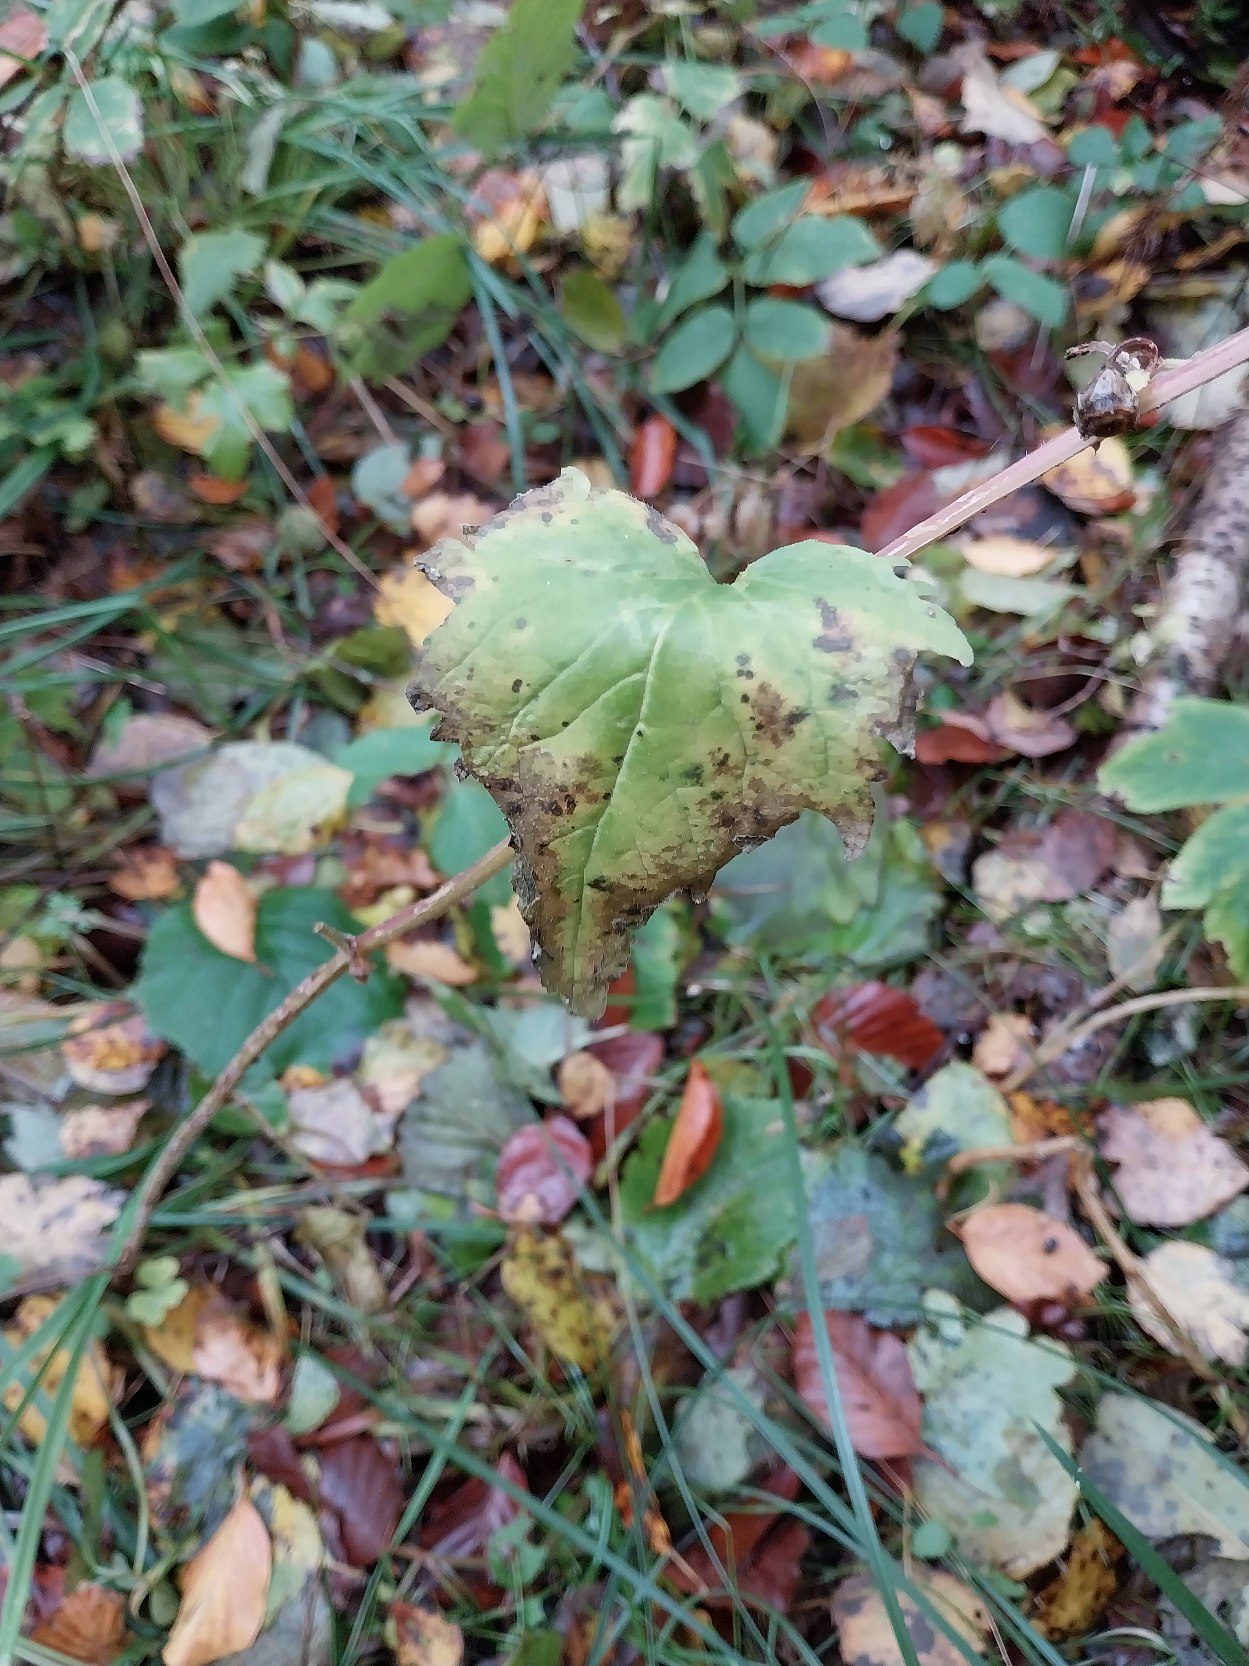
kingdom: Plantae
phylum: Tracheophyta
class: Magnoliopsida
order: Asterales
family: Campanulaceae
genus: Campanula
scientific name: Campanula trachelium
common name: Nælde-klokke
